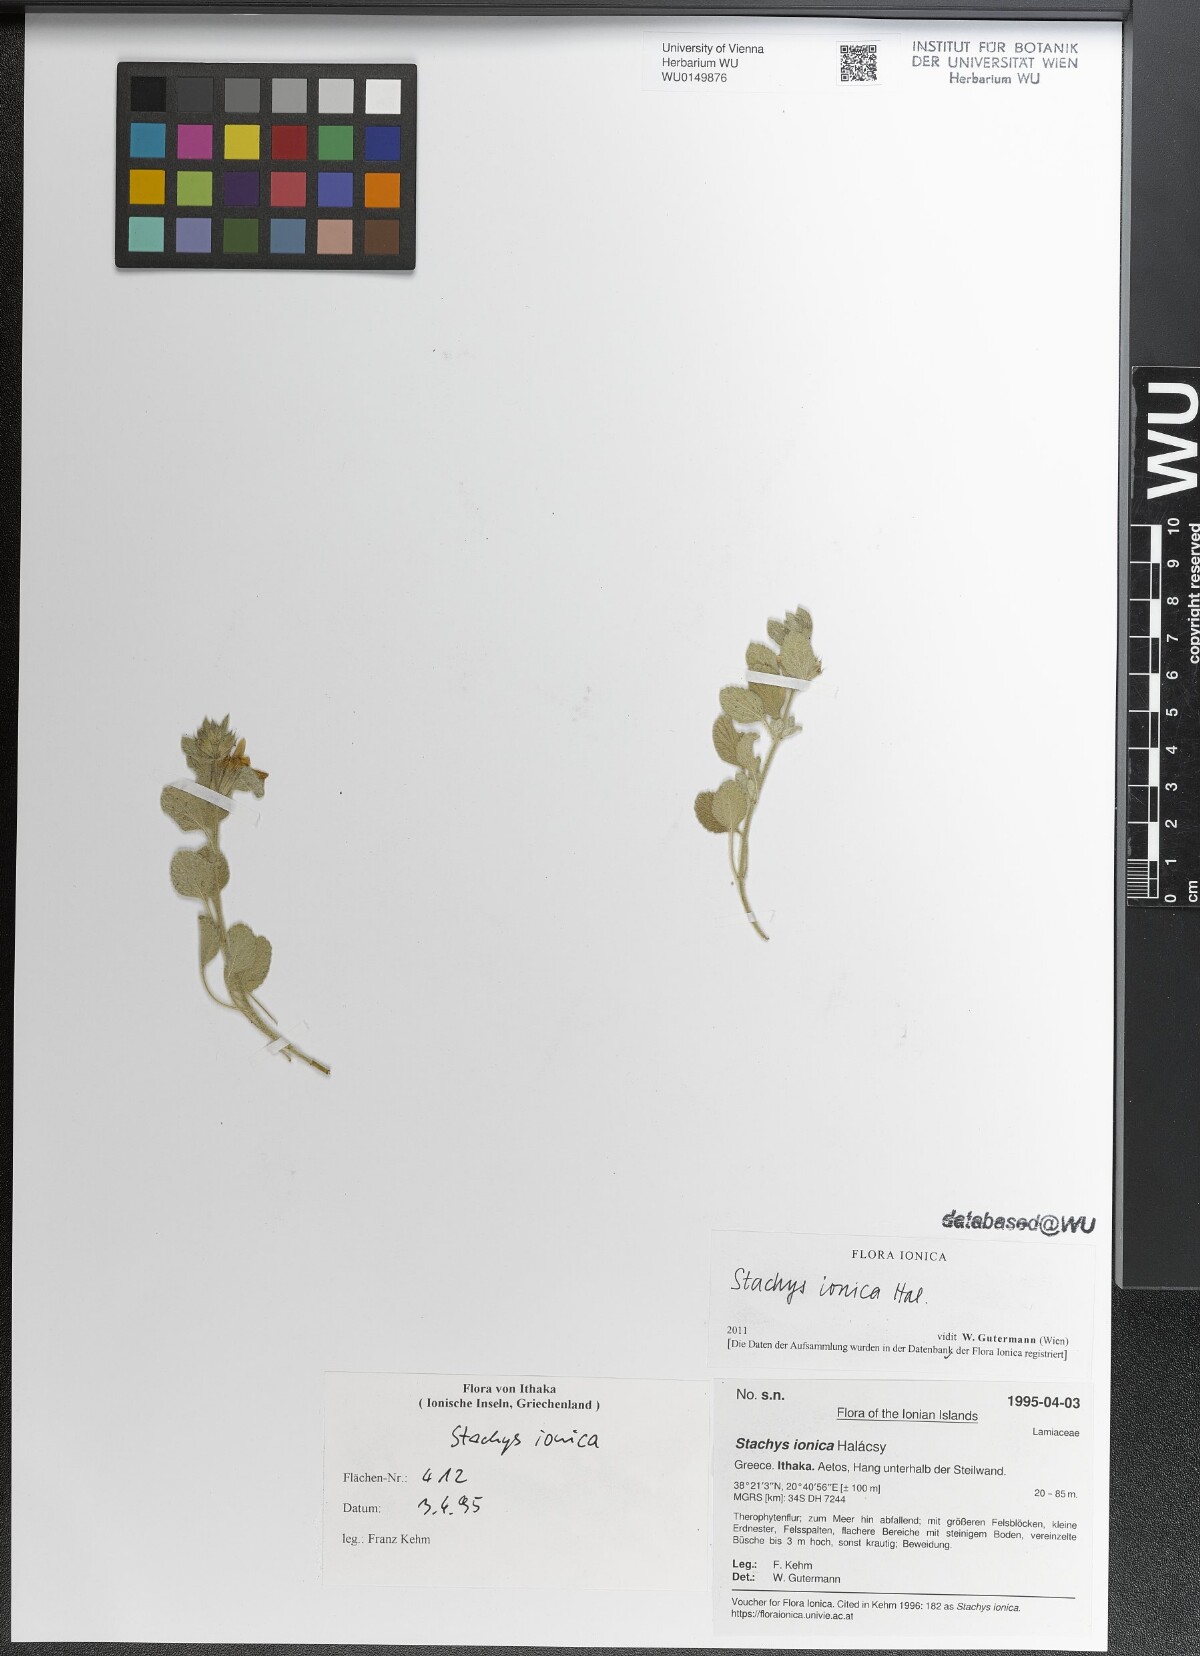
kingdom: Plantae
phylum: Tracheophyta
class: Magnoliopsida
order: Lamiales
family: Lamiaceae
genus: Stachys
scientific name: Stachys ionica
